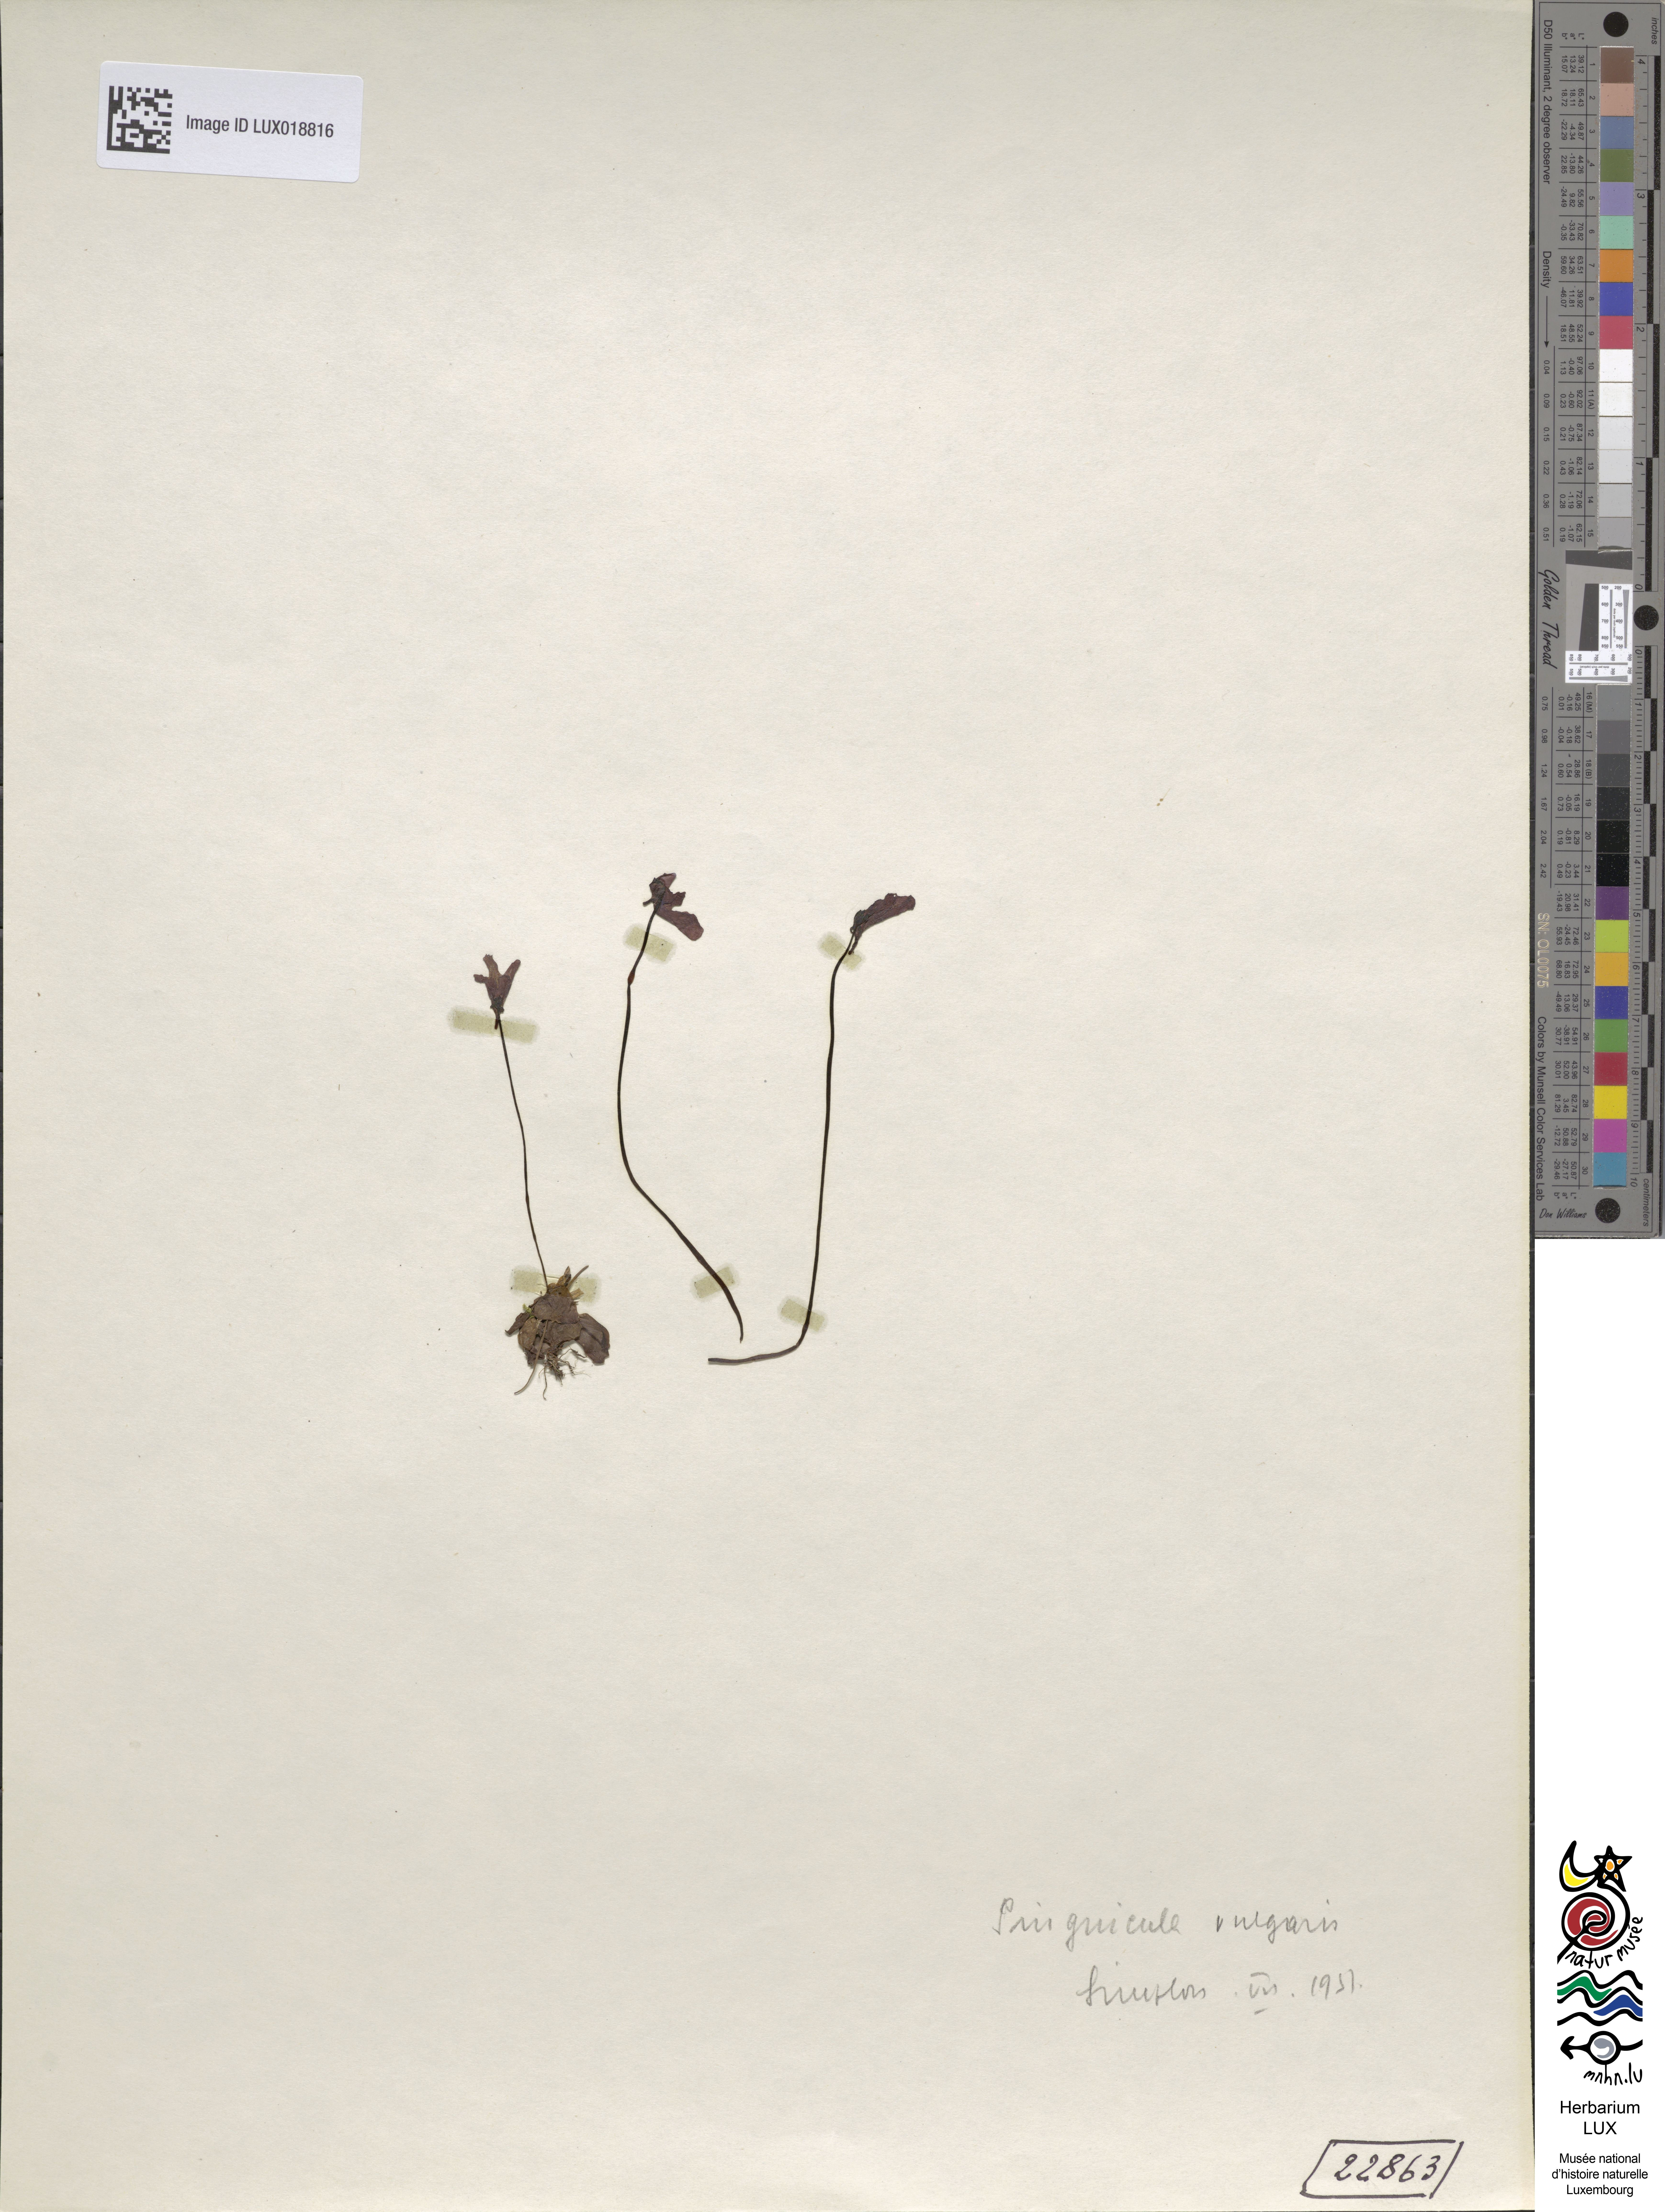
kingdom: Plantae
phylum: Tracheophyta
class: Magnoliopsida
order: Lamiales
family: Lentibulariaceae
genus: Pinguicula
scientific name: Pinguicula vulgaris
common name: Common butterwort
